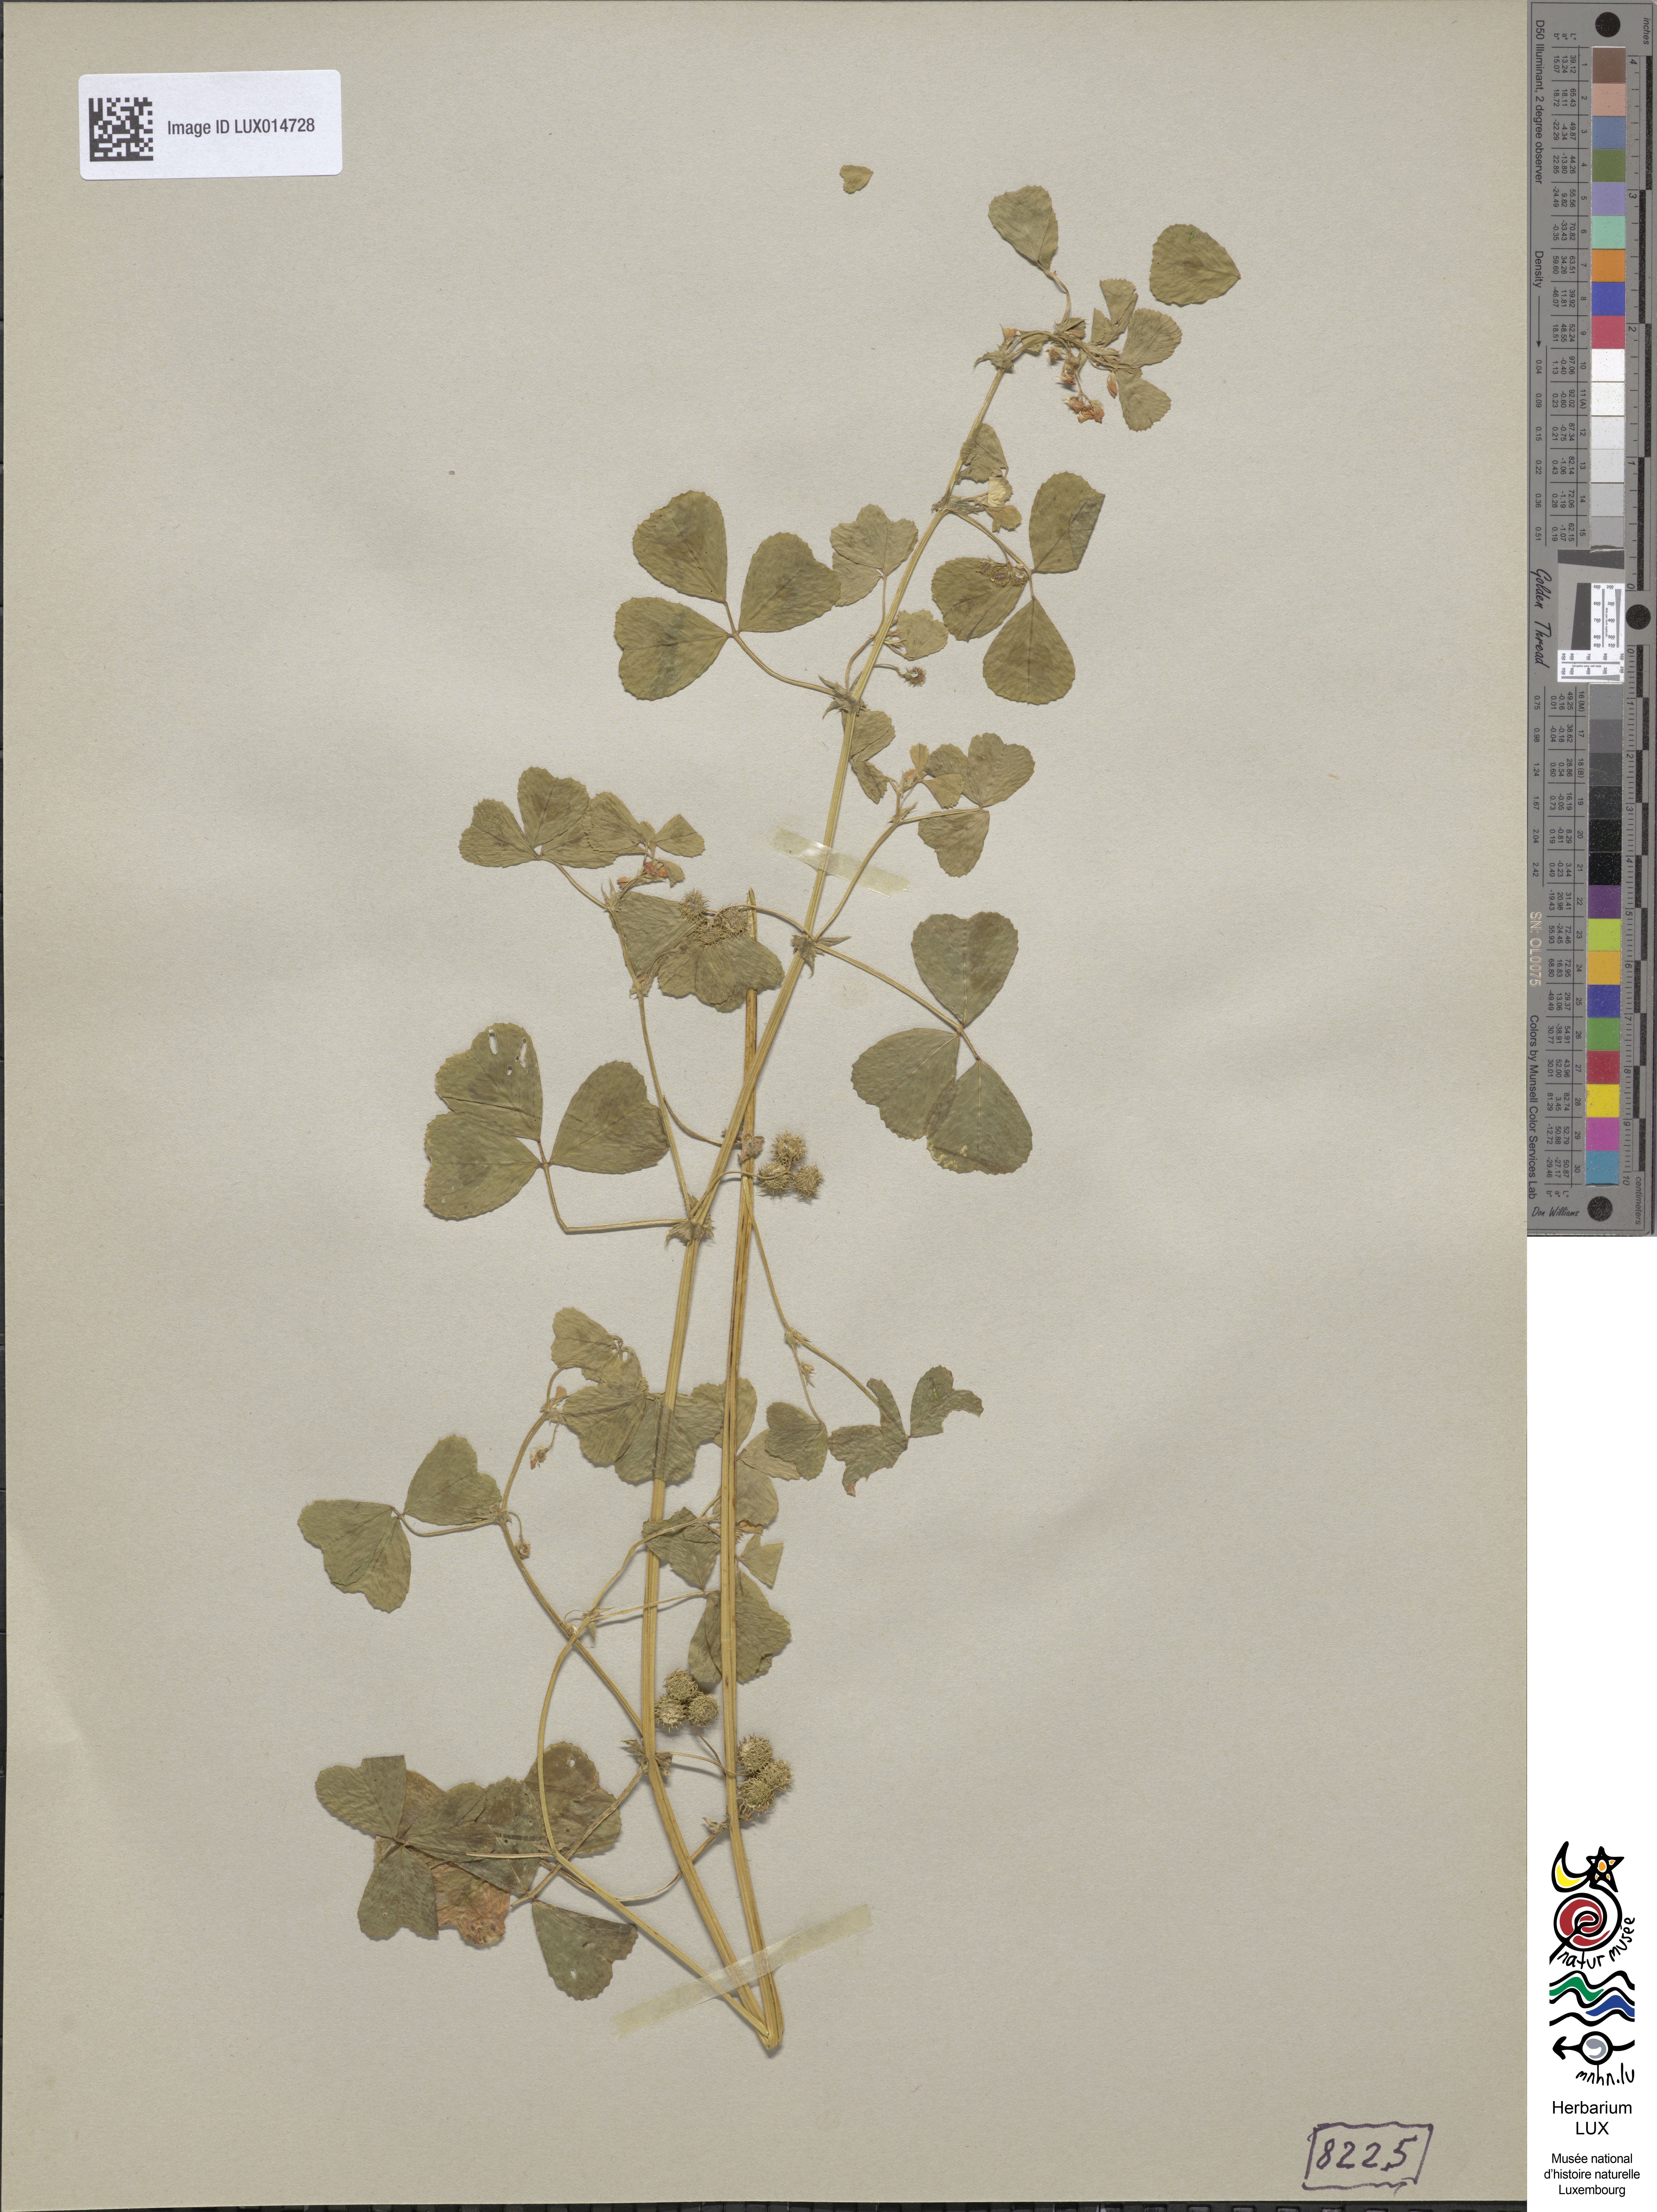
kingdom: Plantae
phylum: Tracheophyta
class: Magnoliopsida
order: Fabales
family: Fabaceae
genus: Medicago
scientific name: Medicago arabica
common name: Spotted medick
